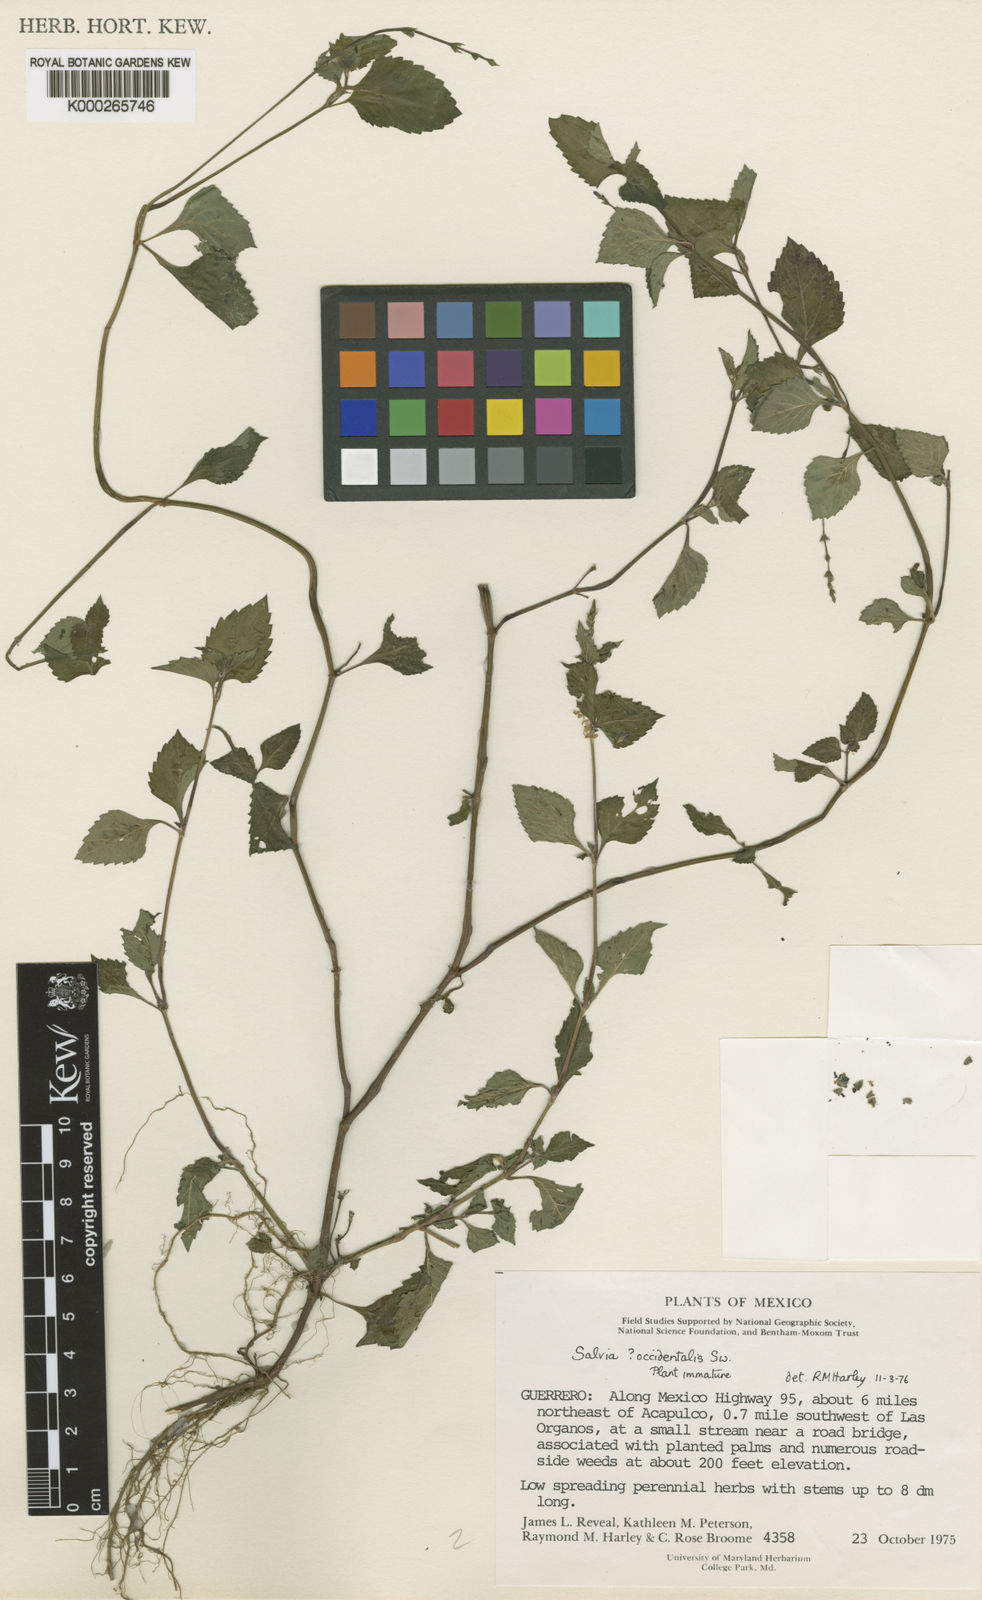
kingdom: Plantae
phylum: Tracheophyta
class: Magnoliopsida
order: Lamiales
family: Lamiaceae
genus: Salvia
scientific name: Salvia occidentalis
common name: West indian sage
